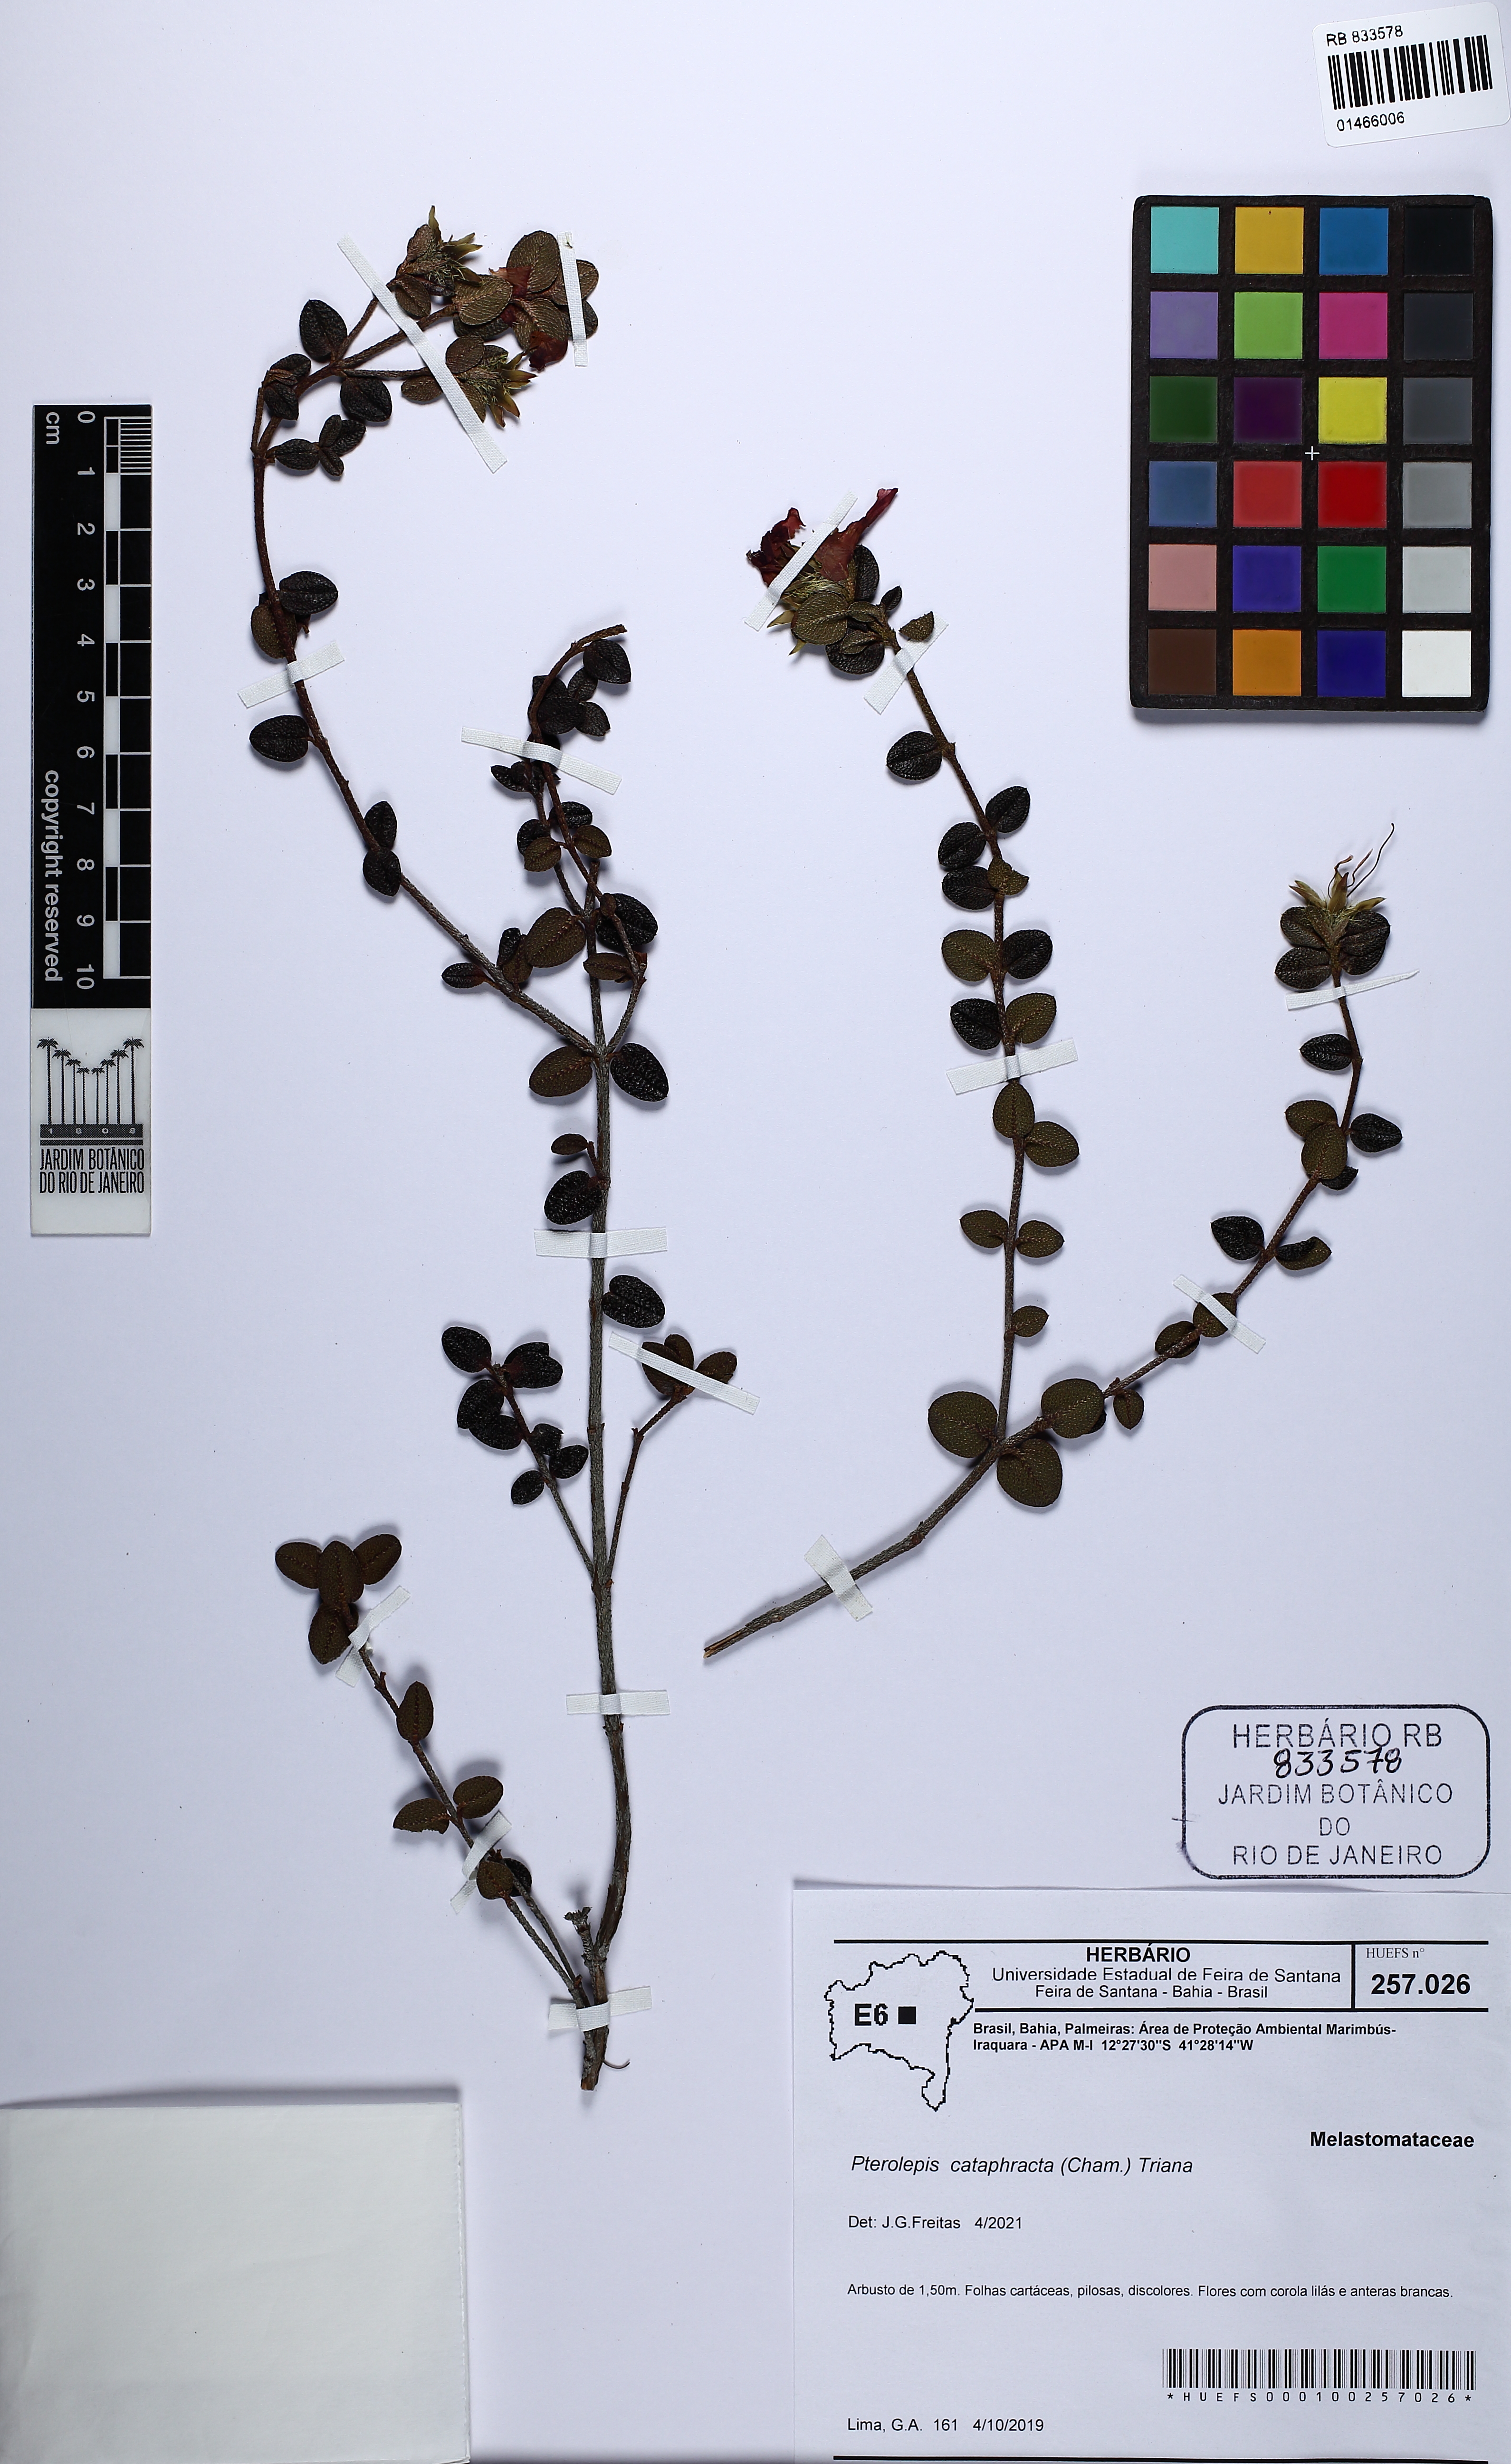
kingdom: Plantae
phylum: Tracheophyta
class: Magnoliopsida
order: Myrtales
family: Myrtaceae
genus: Psidium
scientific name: Psidium rufum
